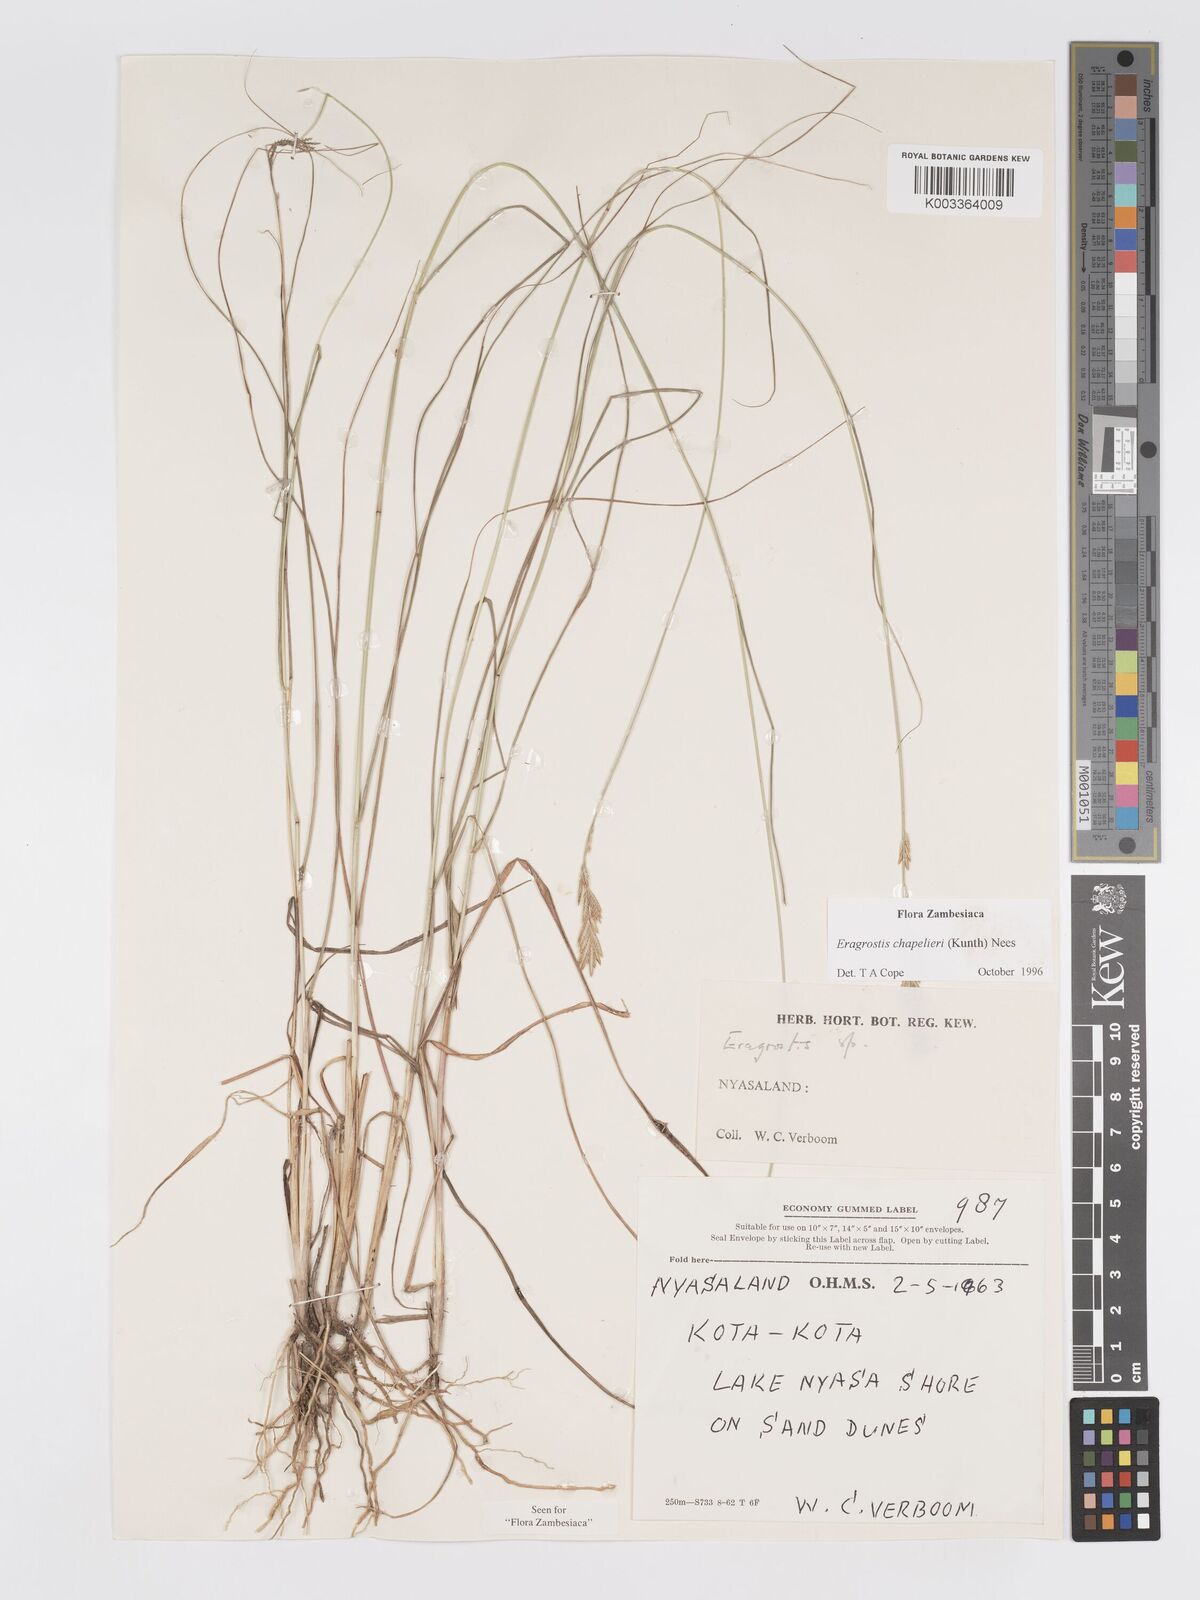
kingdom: Plantae
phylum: Tracheophyta
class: Liliopsida
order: Poales
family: Poaceae
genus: Eragrostis
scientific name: Eragrostis chapelieri
